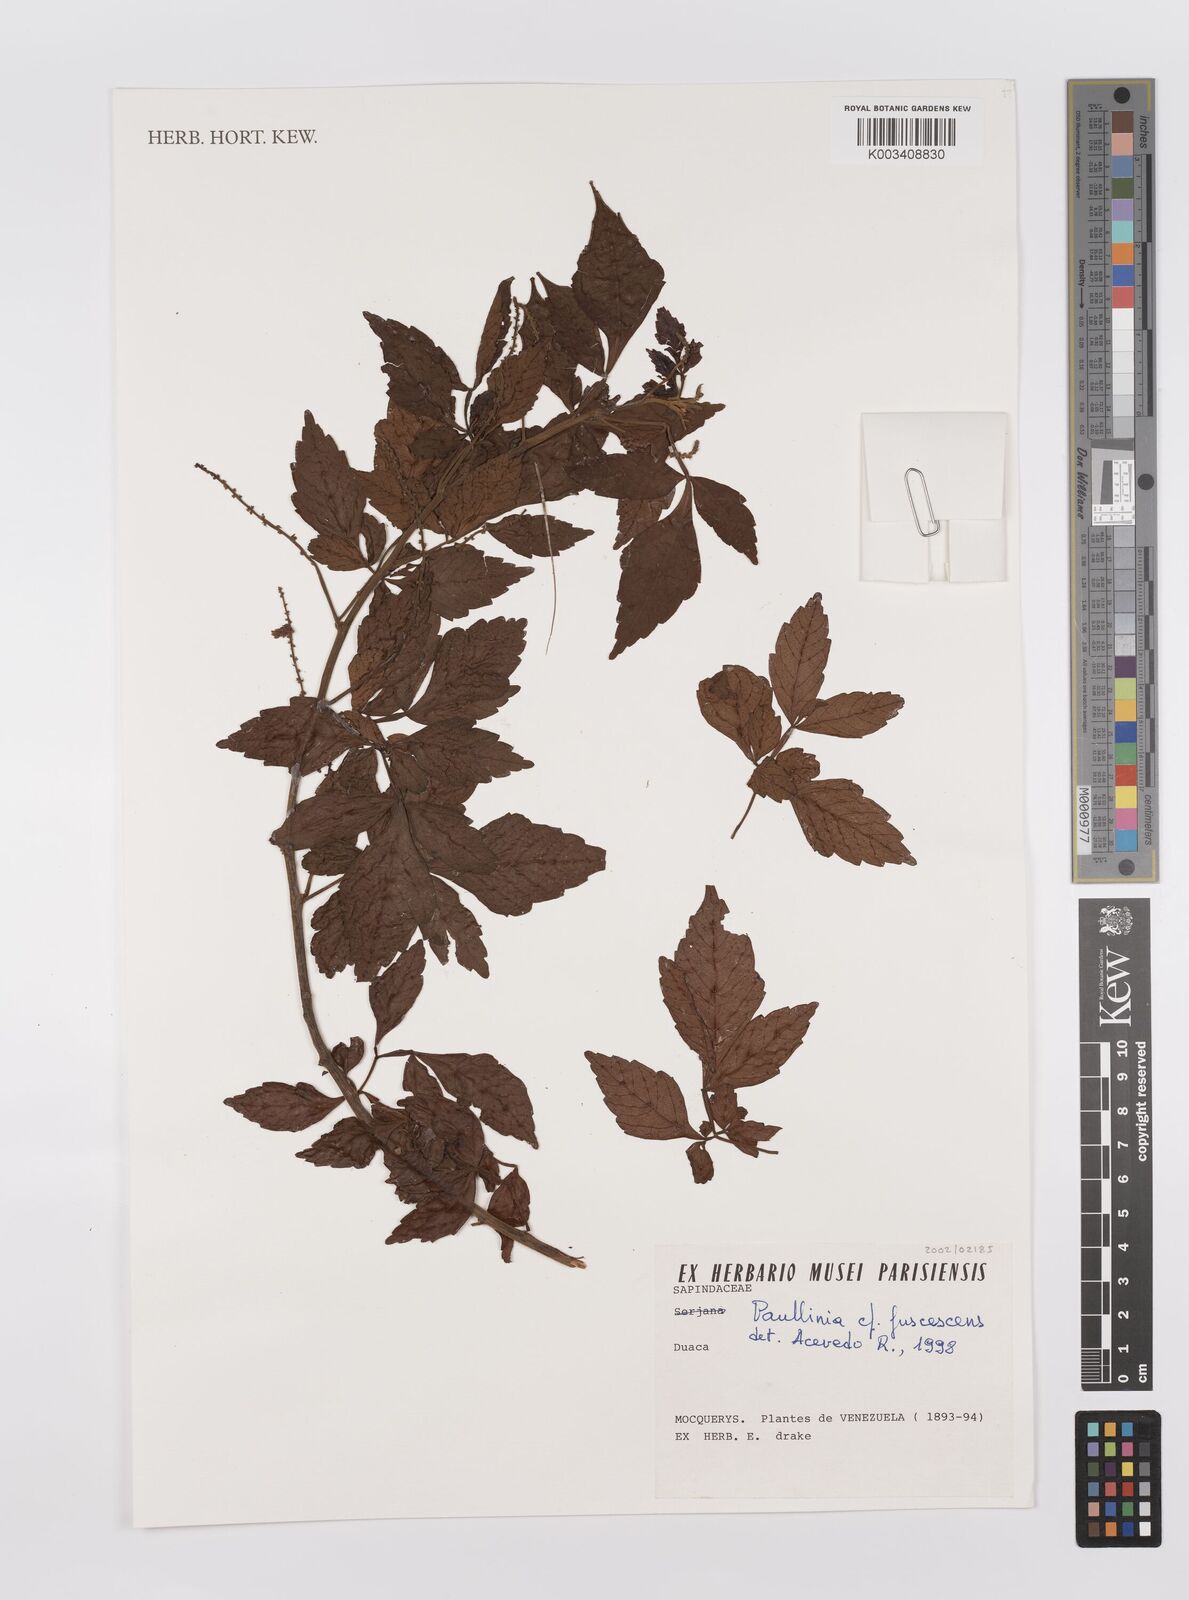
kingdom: Plantae
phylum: Tracheophyta
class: Magnoliopsida
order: Sapindales
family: Sapindaceae
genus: Paullinia
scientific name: Paullinia fuscescens
